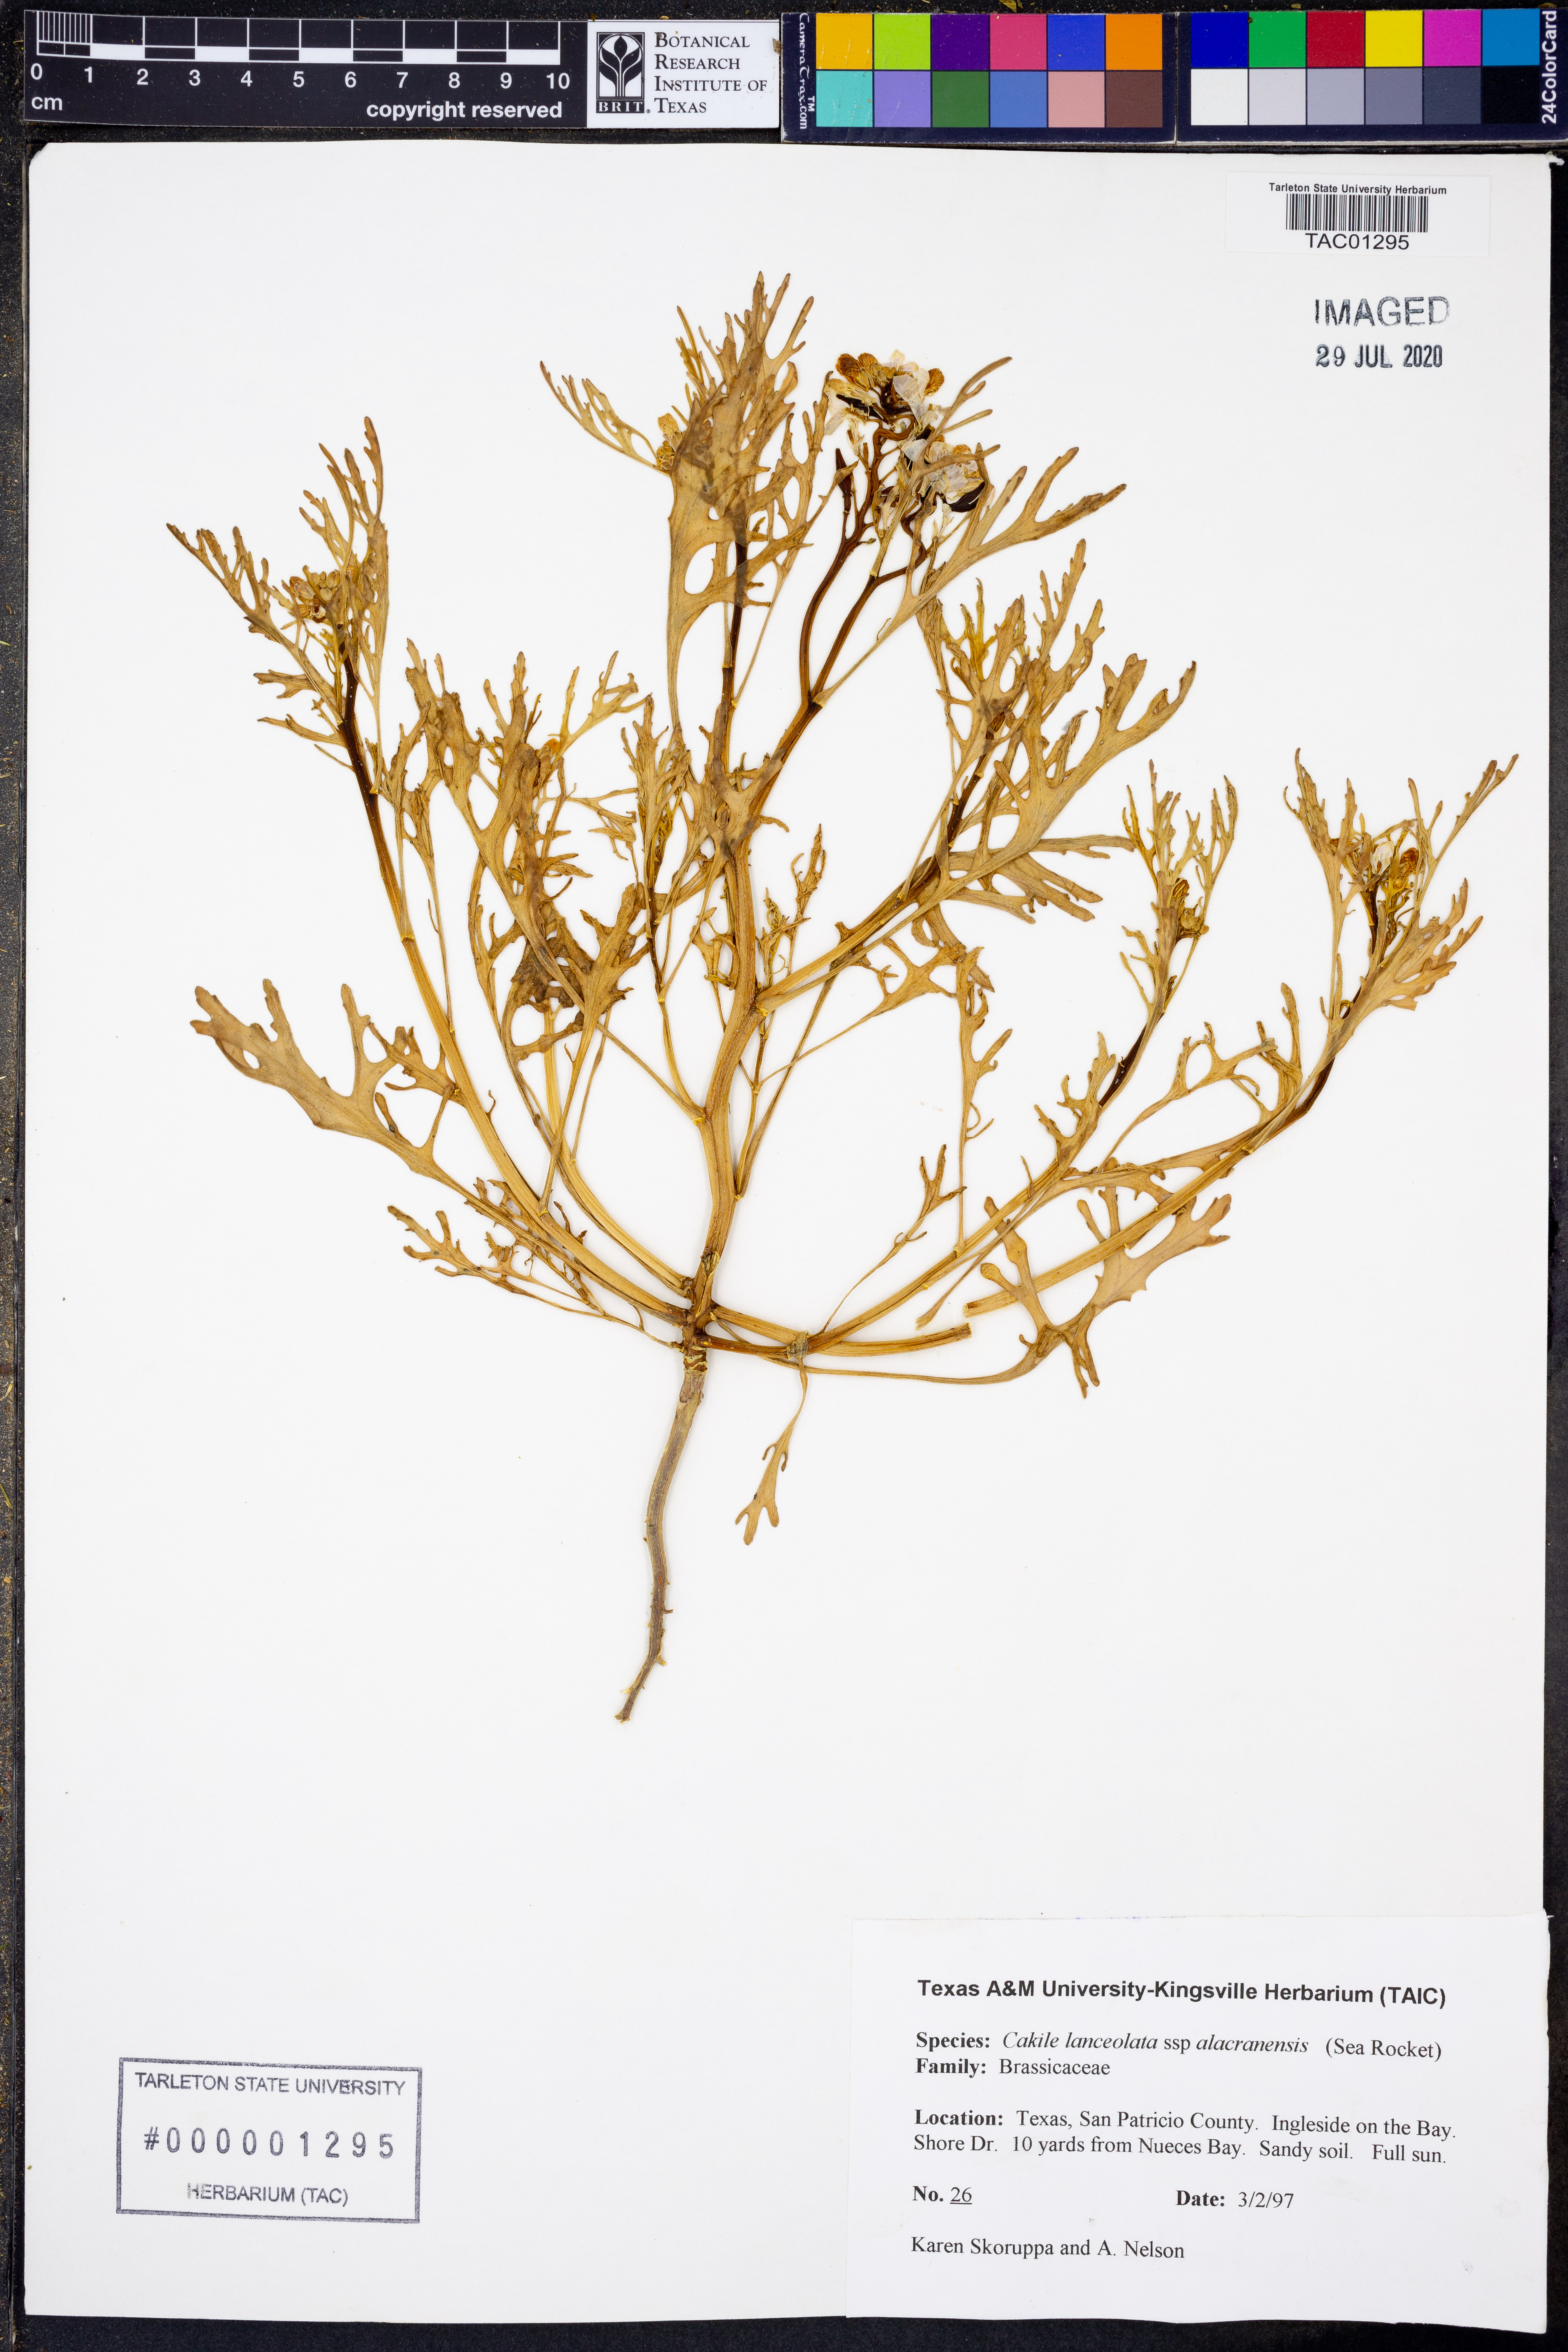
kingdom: Plantae
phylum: Tracheophyta
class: Magnoliopsida
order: Brassicales
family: Brassicaceae
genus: Cakile
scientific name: Cakile lanceolata
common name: Sea rocket
